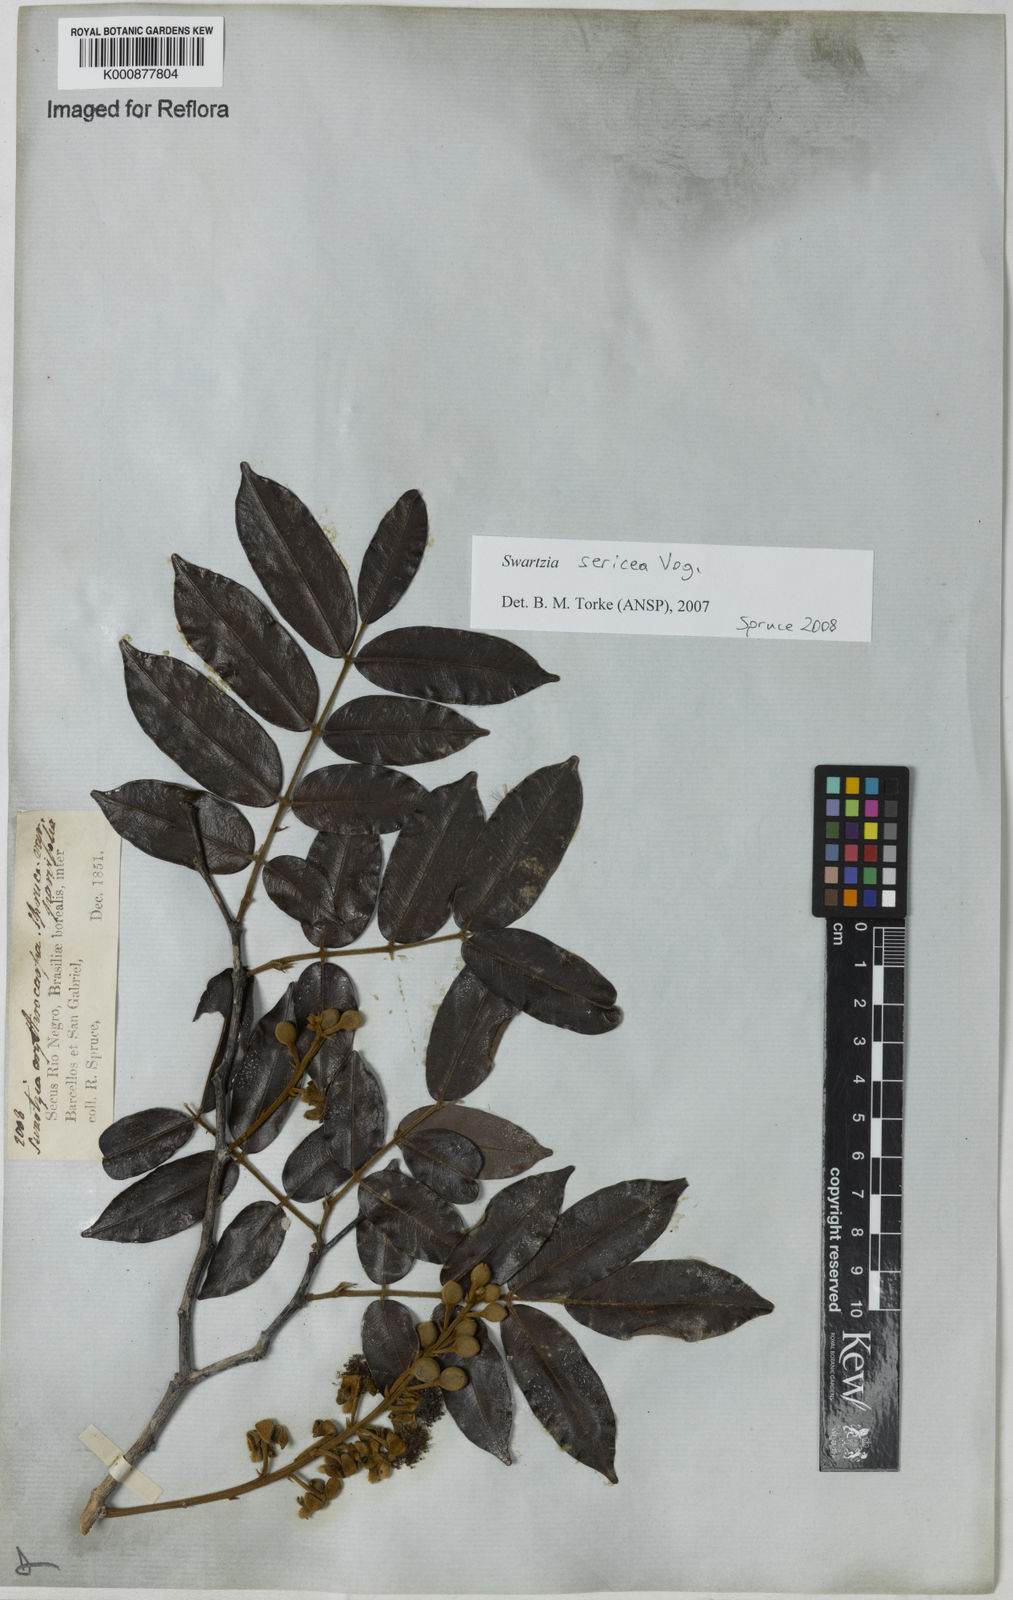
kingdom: Plantae
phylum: Tracheophyta
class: Magnoliopsida
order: Fabales
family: Fabaceae
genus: Swartzia
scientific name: Swartzia sericea
